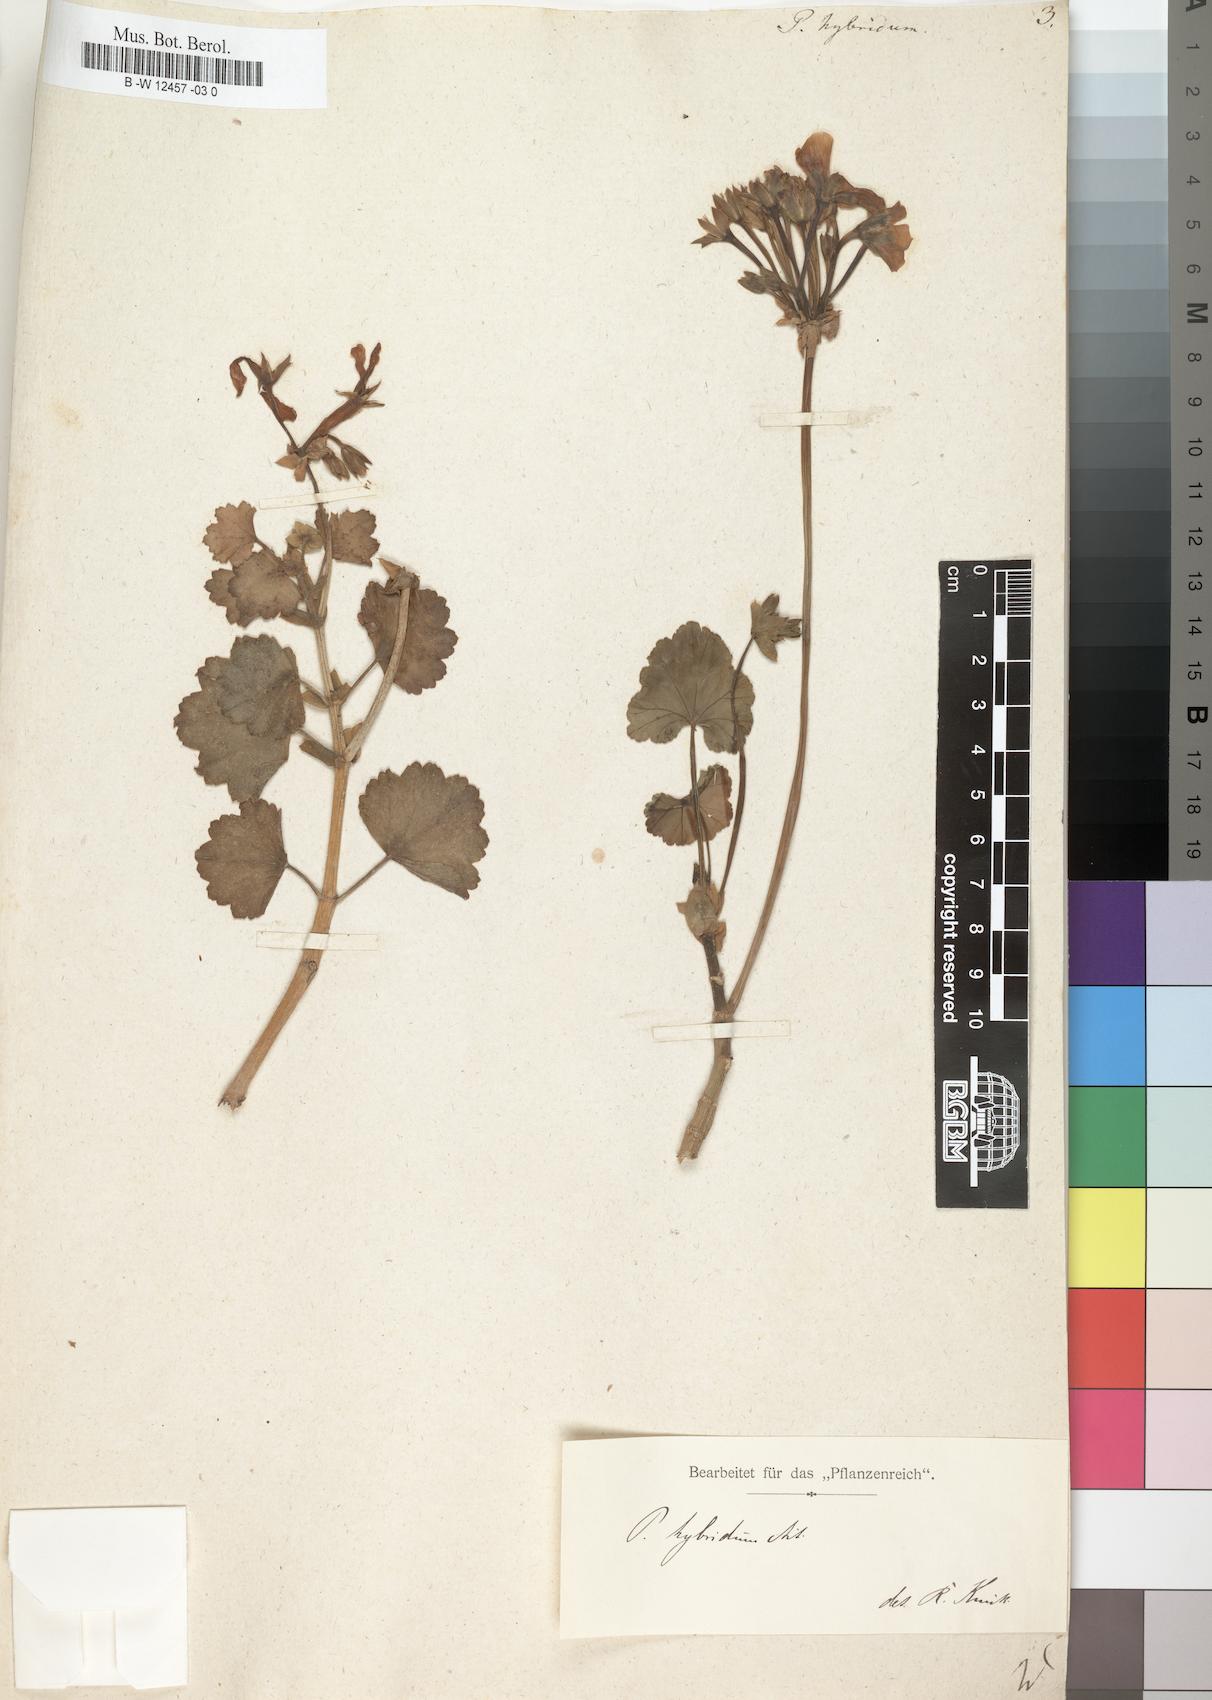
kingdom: Plantae
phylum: Tracheophyta
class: Magnoliopsida
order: Geraniales
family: Geraniaceae
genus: Pelargonium
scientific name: Pelargonium hybridum
